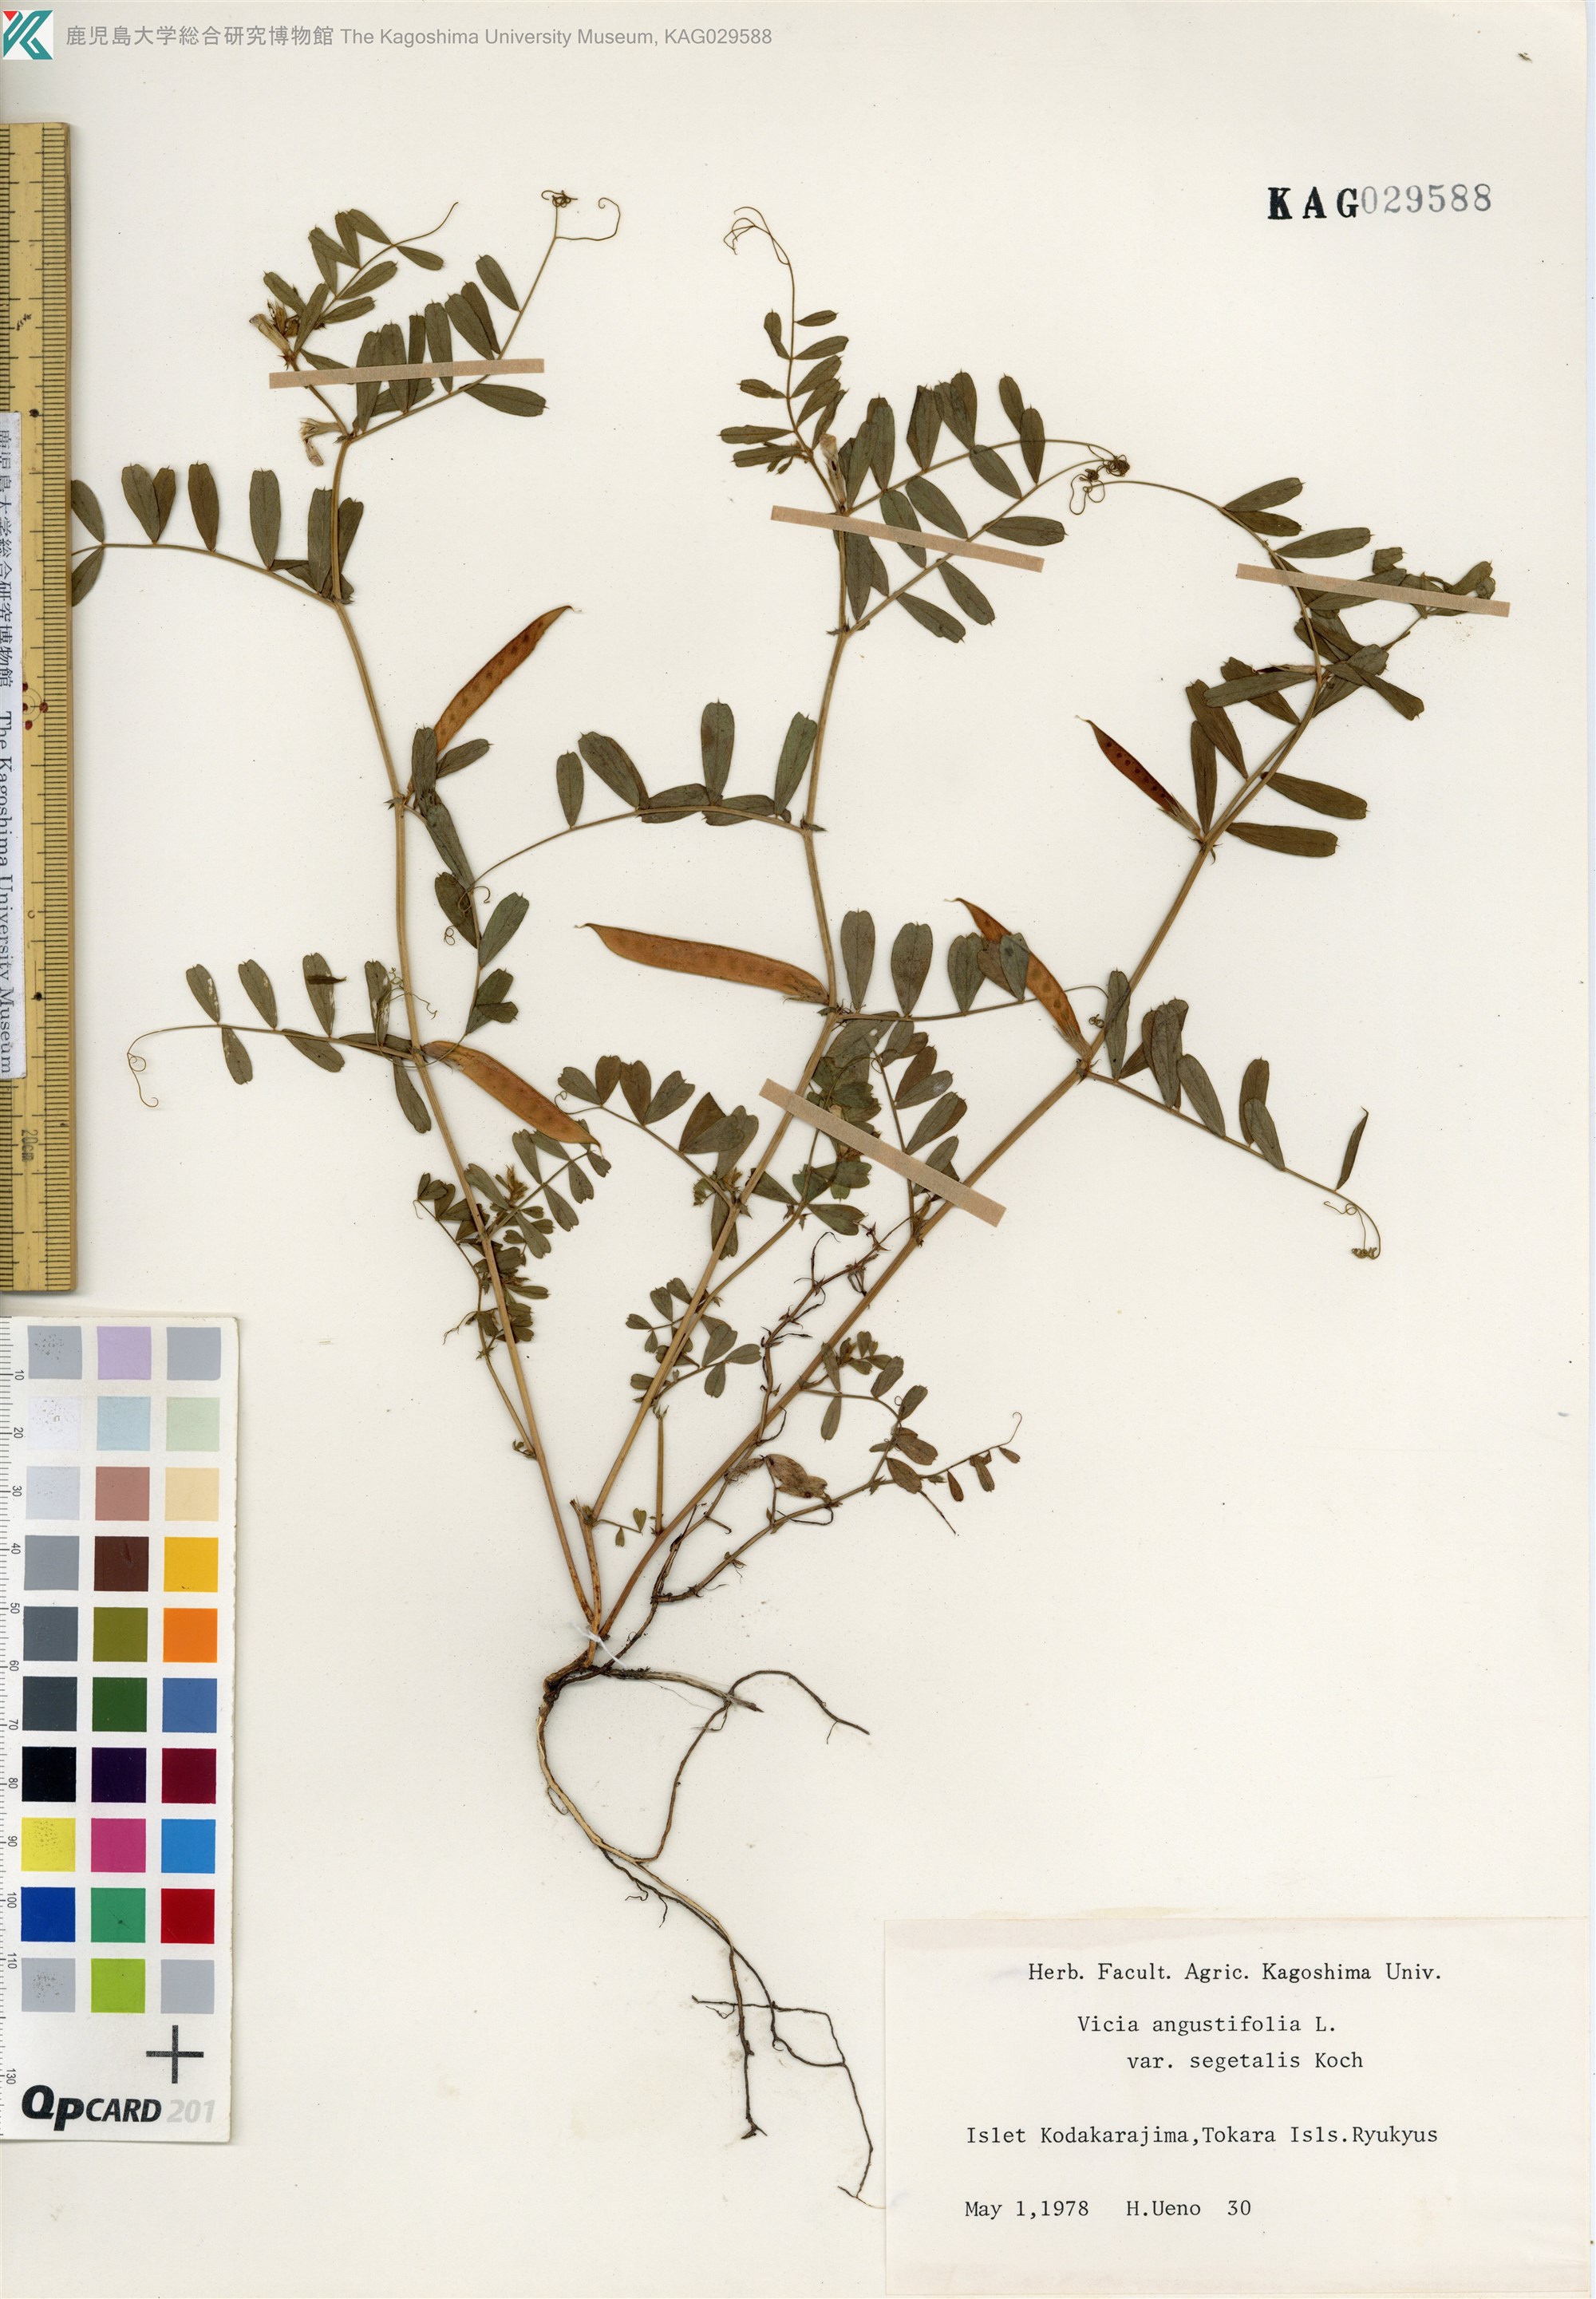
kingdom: Plantae
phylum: Tracheophyta
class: Magnoliopsida
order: Fabales
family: Fabaceae
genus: Vicia
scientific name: Vicia sativa
